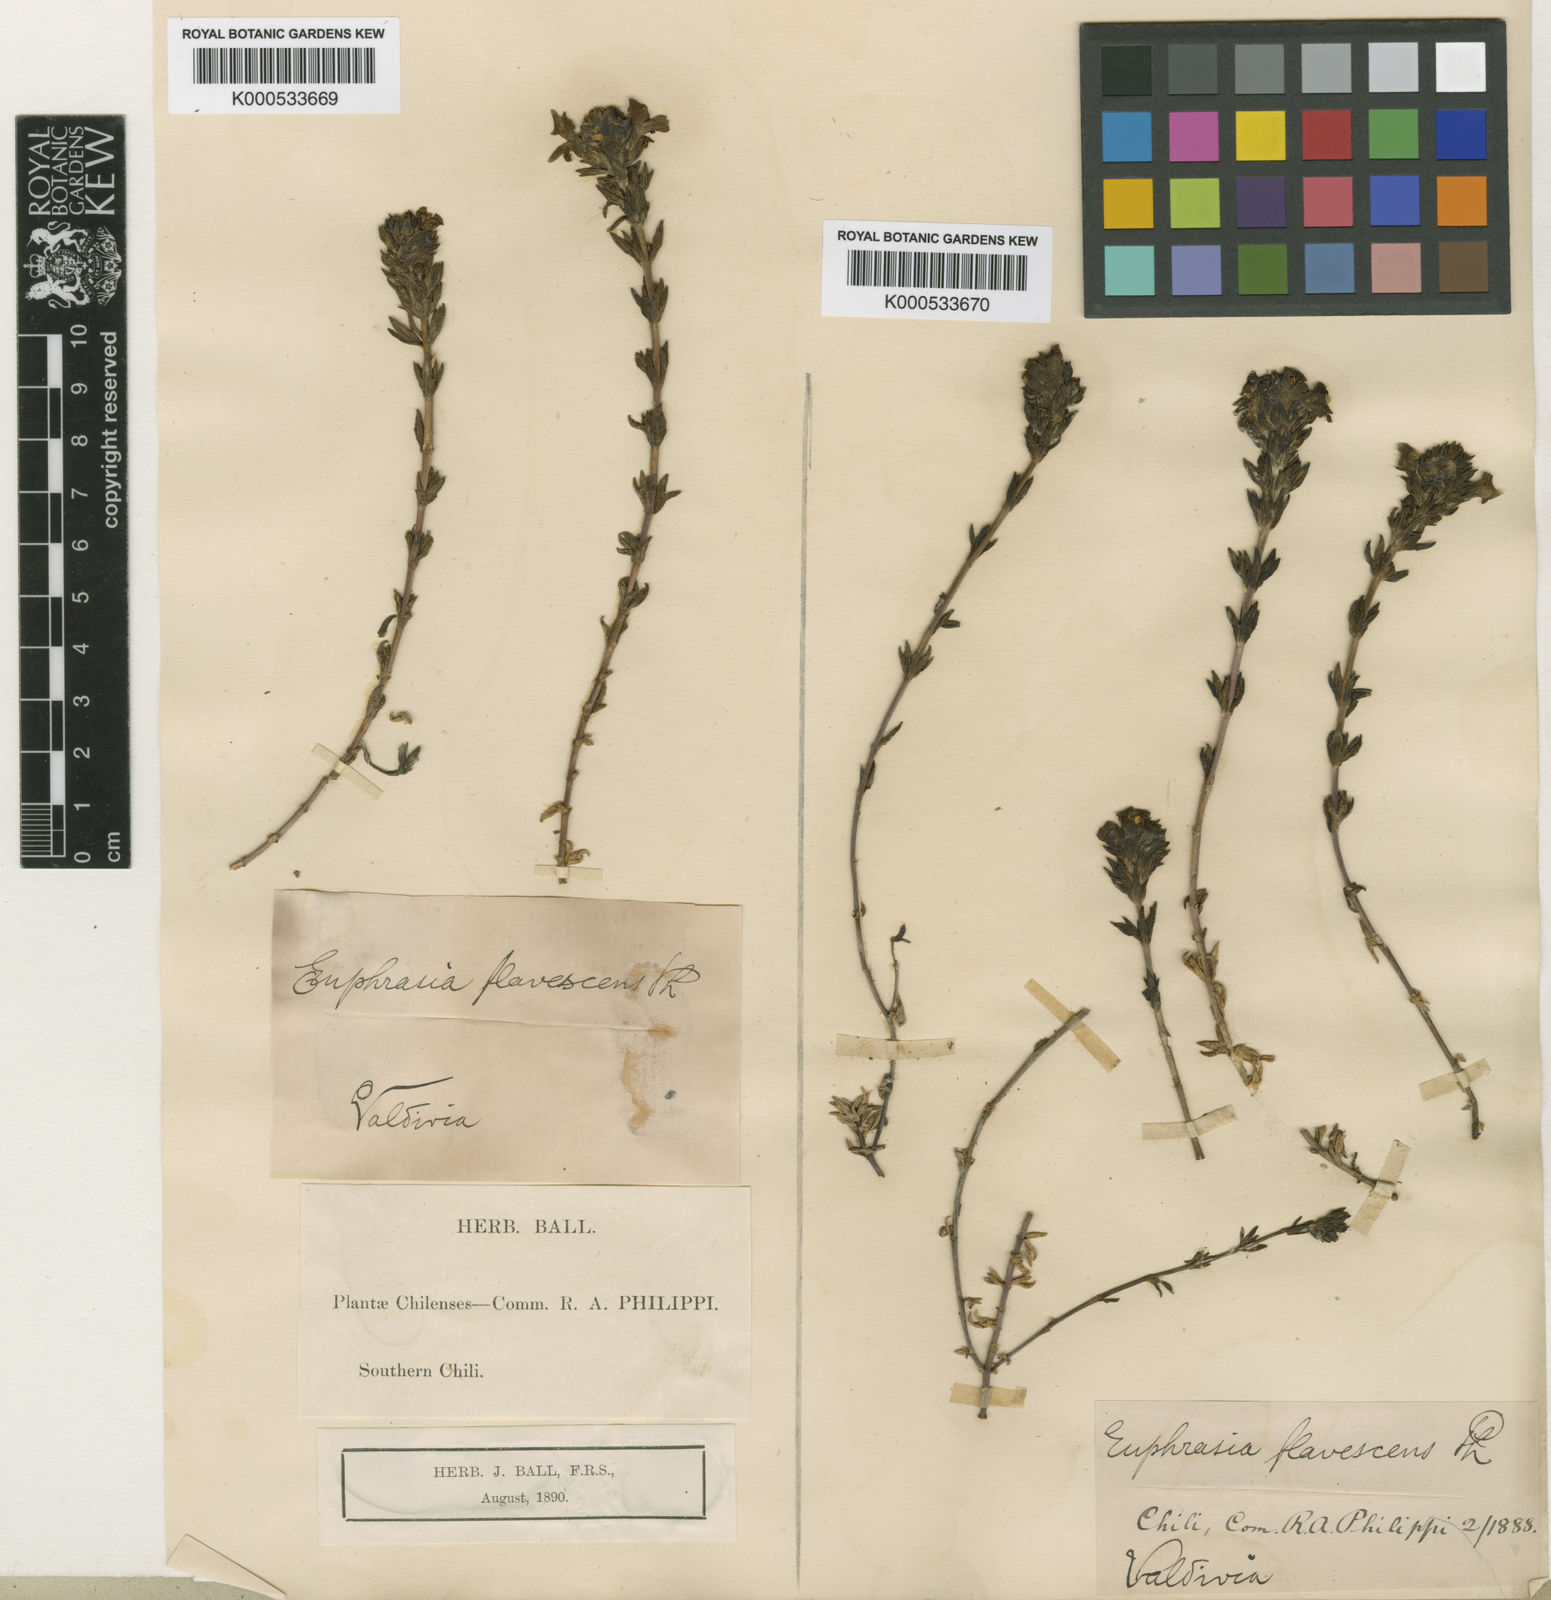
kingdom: Plantae
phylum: Tracheophyta
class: Magnoliopsida
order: Lamiales
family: Orobanchaceae
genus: Euphrasia
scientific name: Euphrasia
